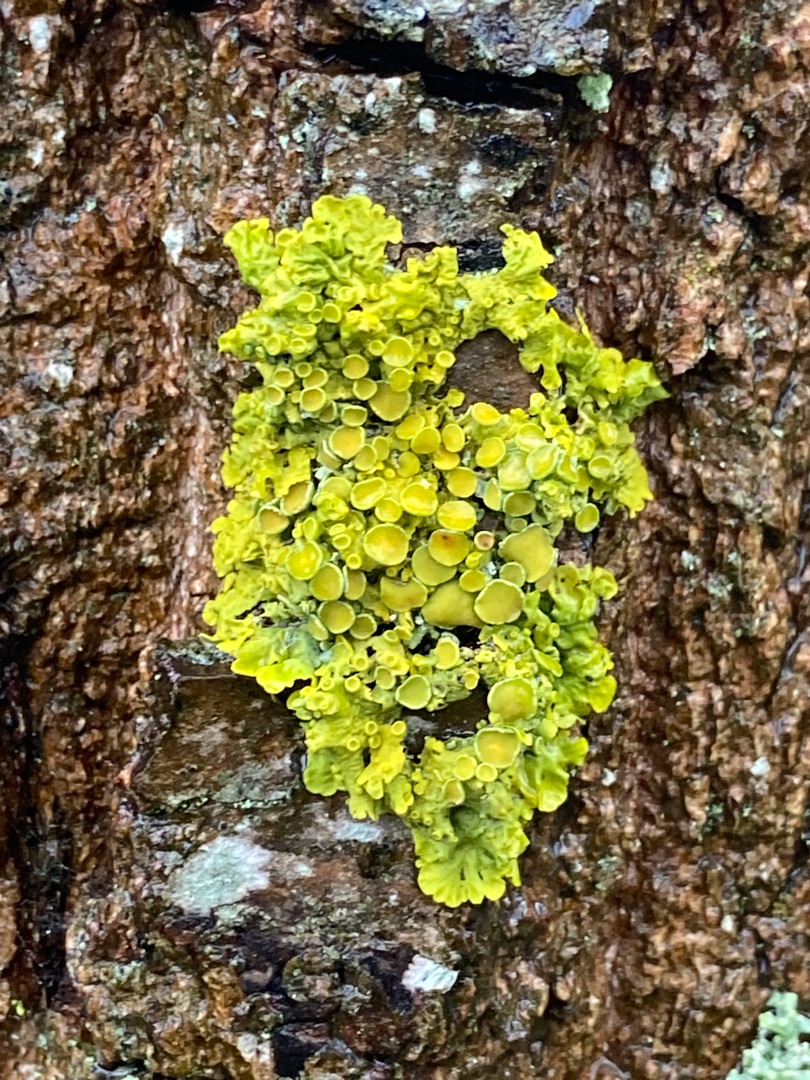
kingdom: Fungi
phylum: Ascomycota
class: Lecanoromycetes
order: Teloschistales
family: Teloschistaceae
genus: Xanthoria
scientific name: Xanthoria parietina
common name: Almindelig væggelav
